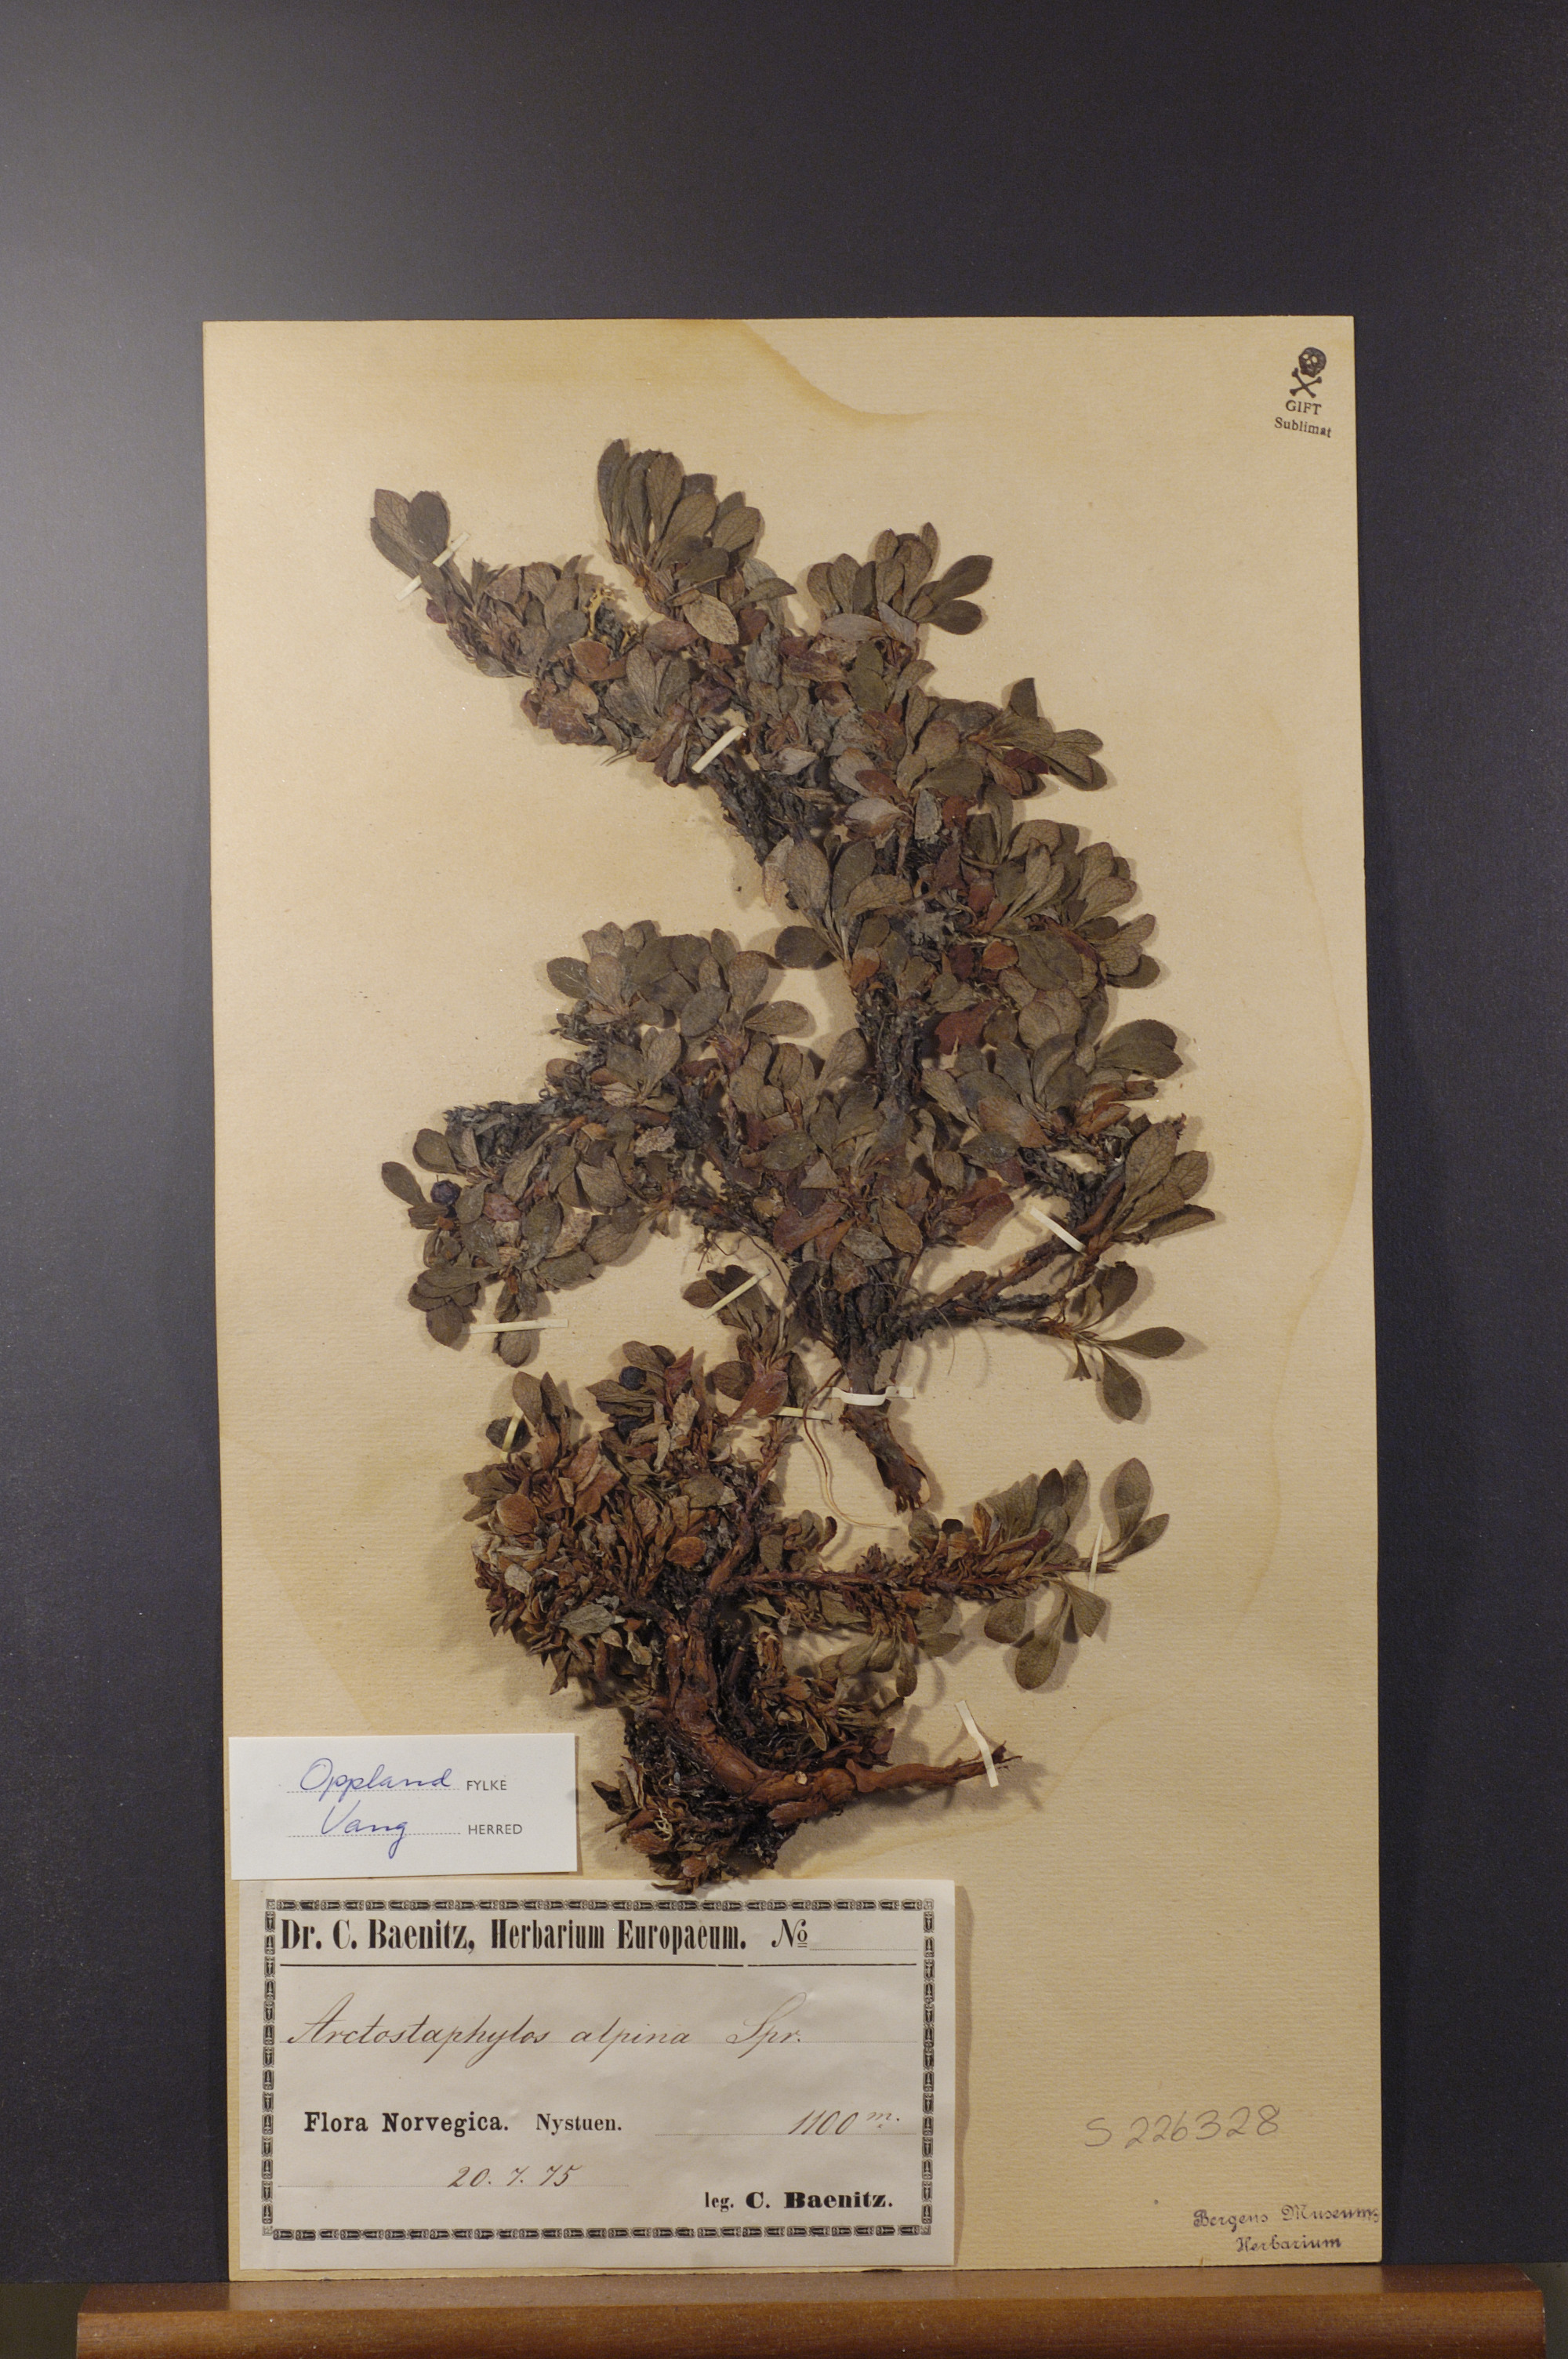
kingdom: Plantae
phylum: Tracheophyta
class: Magnoliopsida
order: Ericales
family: Ericaceae
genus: Arctostaphylos
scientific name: Arctostaphylos alpinus
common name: Alpine bearberry
